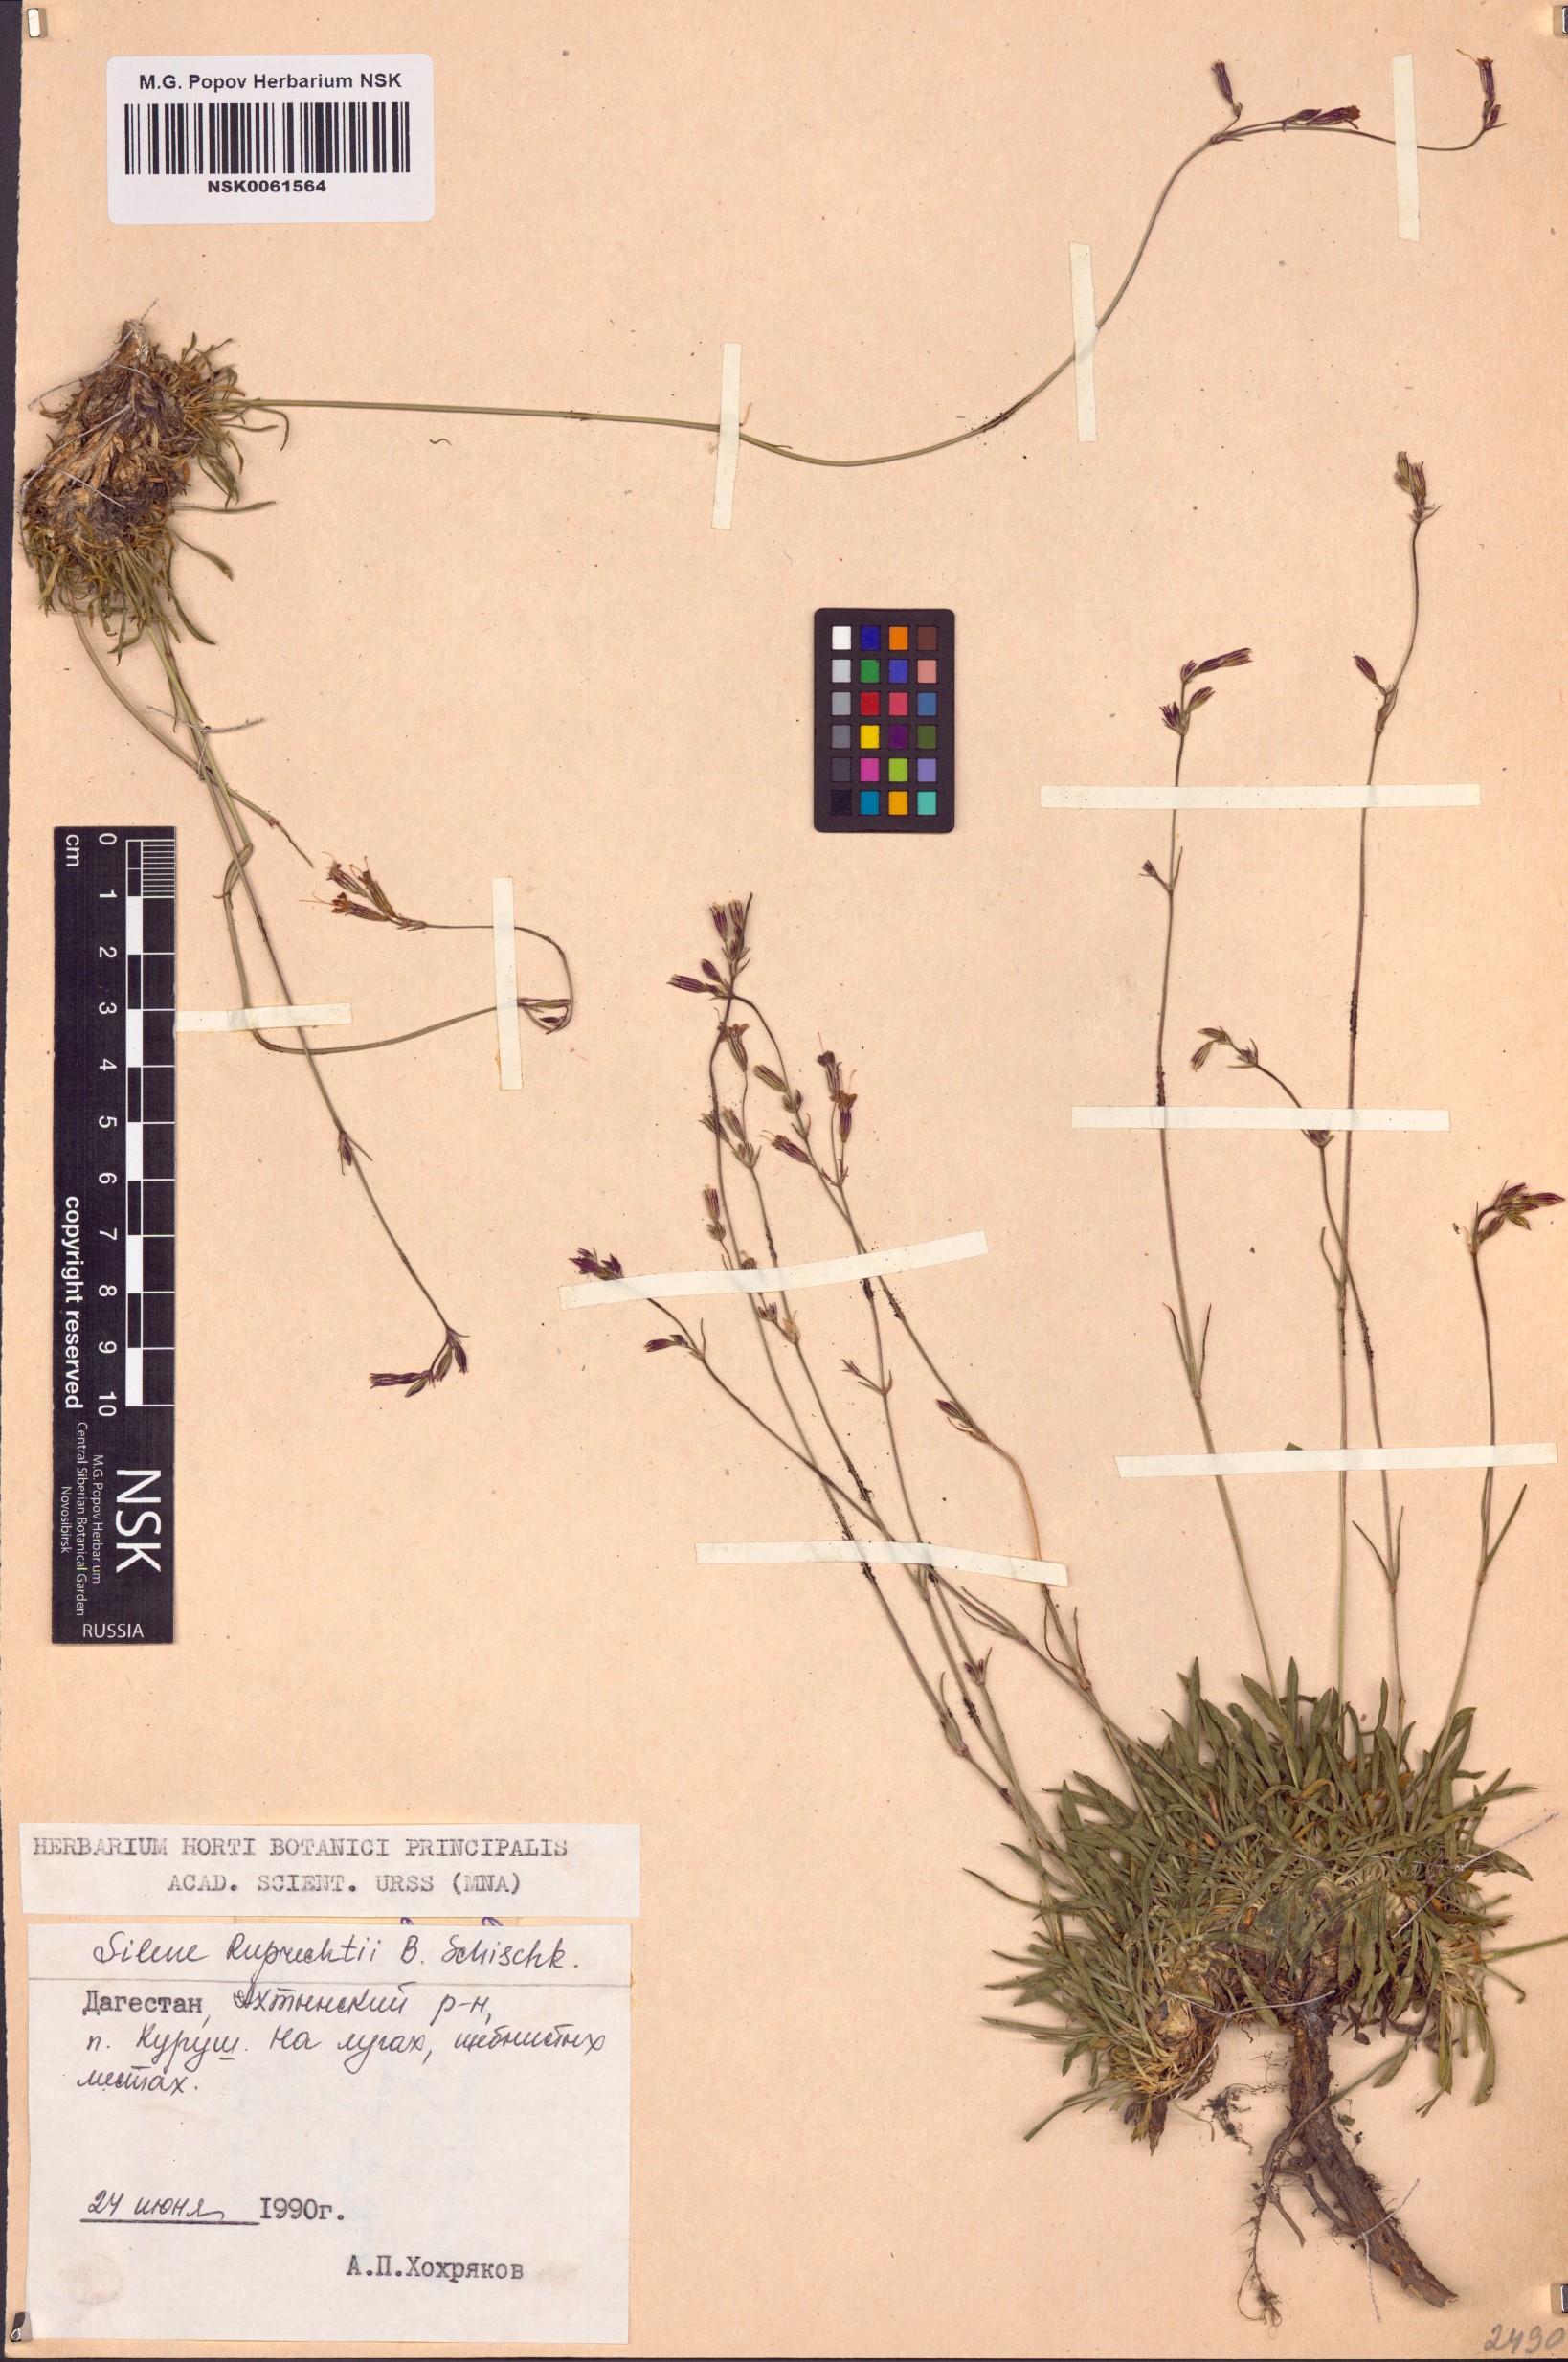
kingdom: Plantae
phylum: Tracheophyta
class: Magnoliopsida
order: Caryophyllales
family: Caryophyllaceae
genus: Silene
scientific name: Silene ruprechtii
